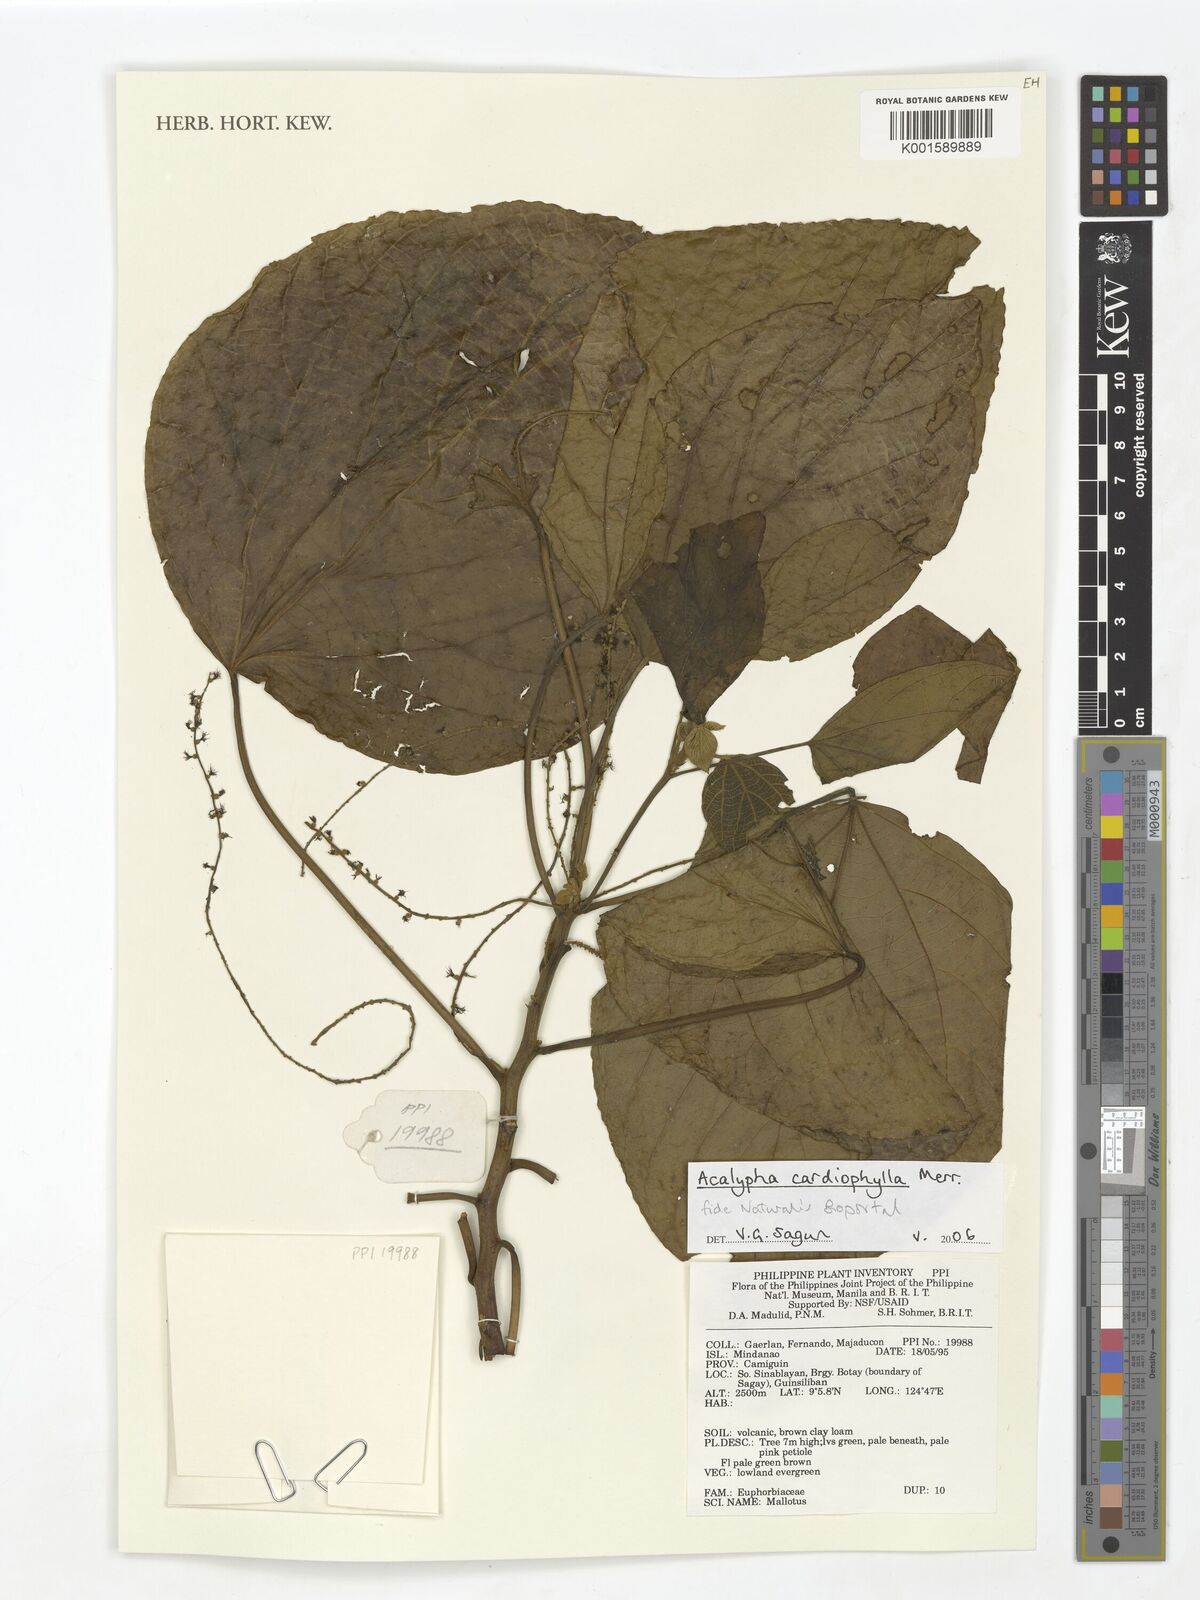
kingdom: Plantae
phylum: Tracheophyta
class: Magnoliopsida
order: Malpighiales
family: Euphorbiaceae
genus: Acalypha
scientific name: Acalypha cardiophylla
